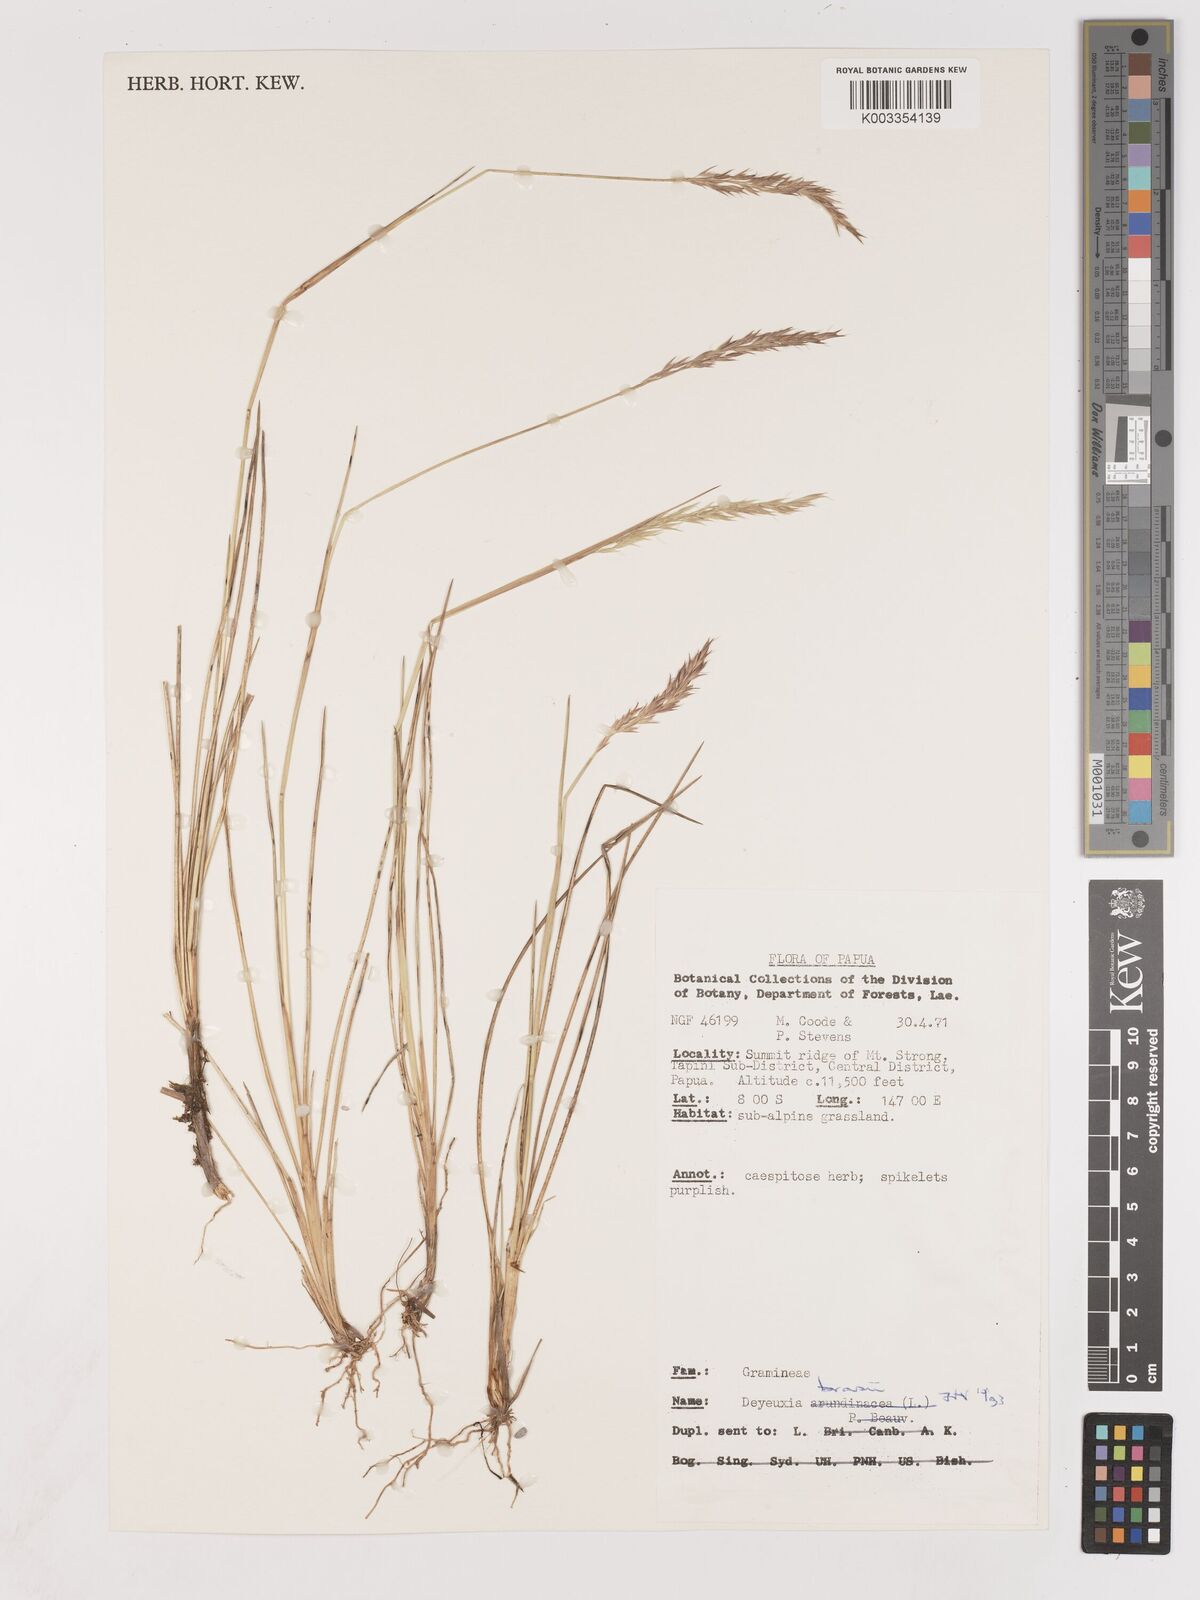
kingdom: Plantae
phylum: Tracheophyta
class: Liliopsida
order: Poales
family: Poaceae
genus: Calamagrostis
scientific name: Calamagrostis brassii
